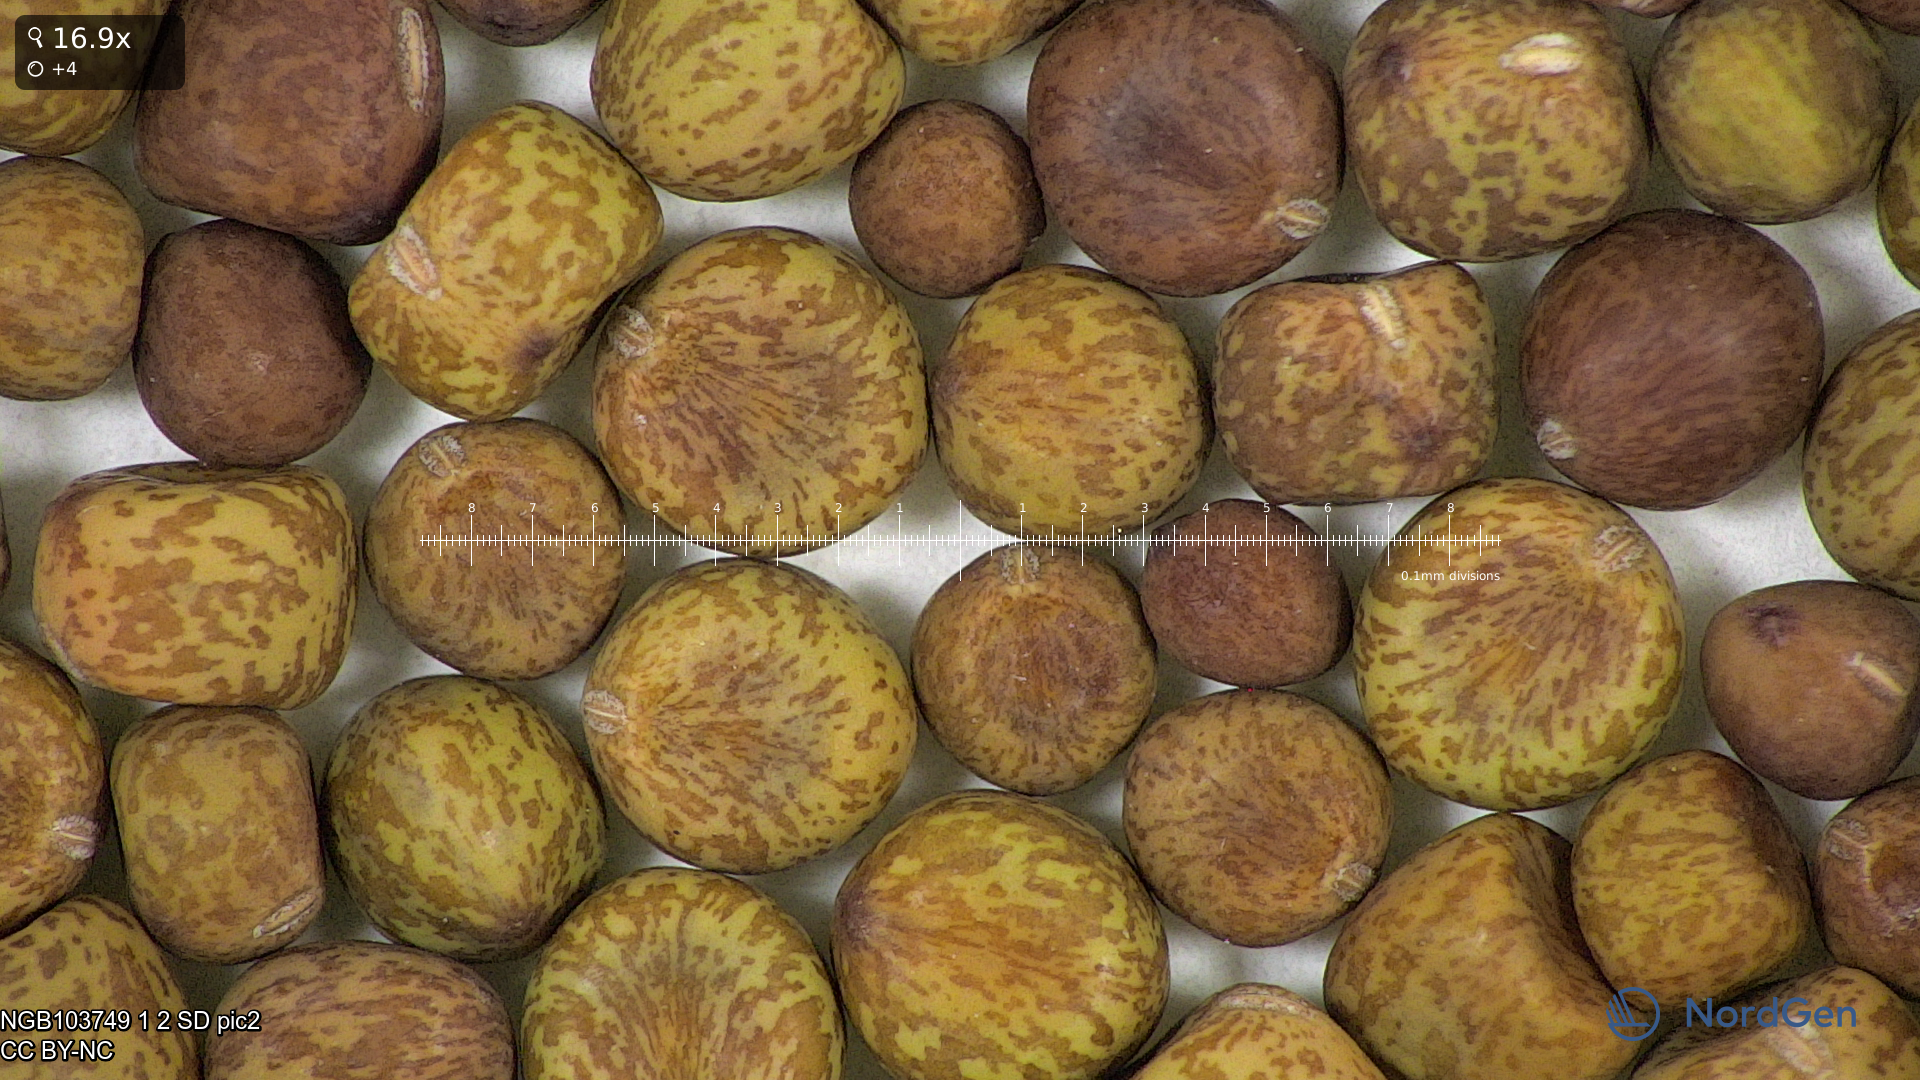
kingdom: Plantae
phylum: Tracheophyta
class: Magnoliopsida
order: Fabales
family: Fabaceae
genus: Lathyrus
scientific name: Lathyrus oleraceus
